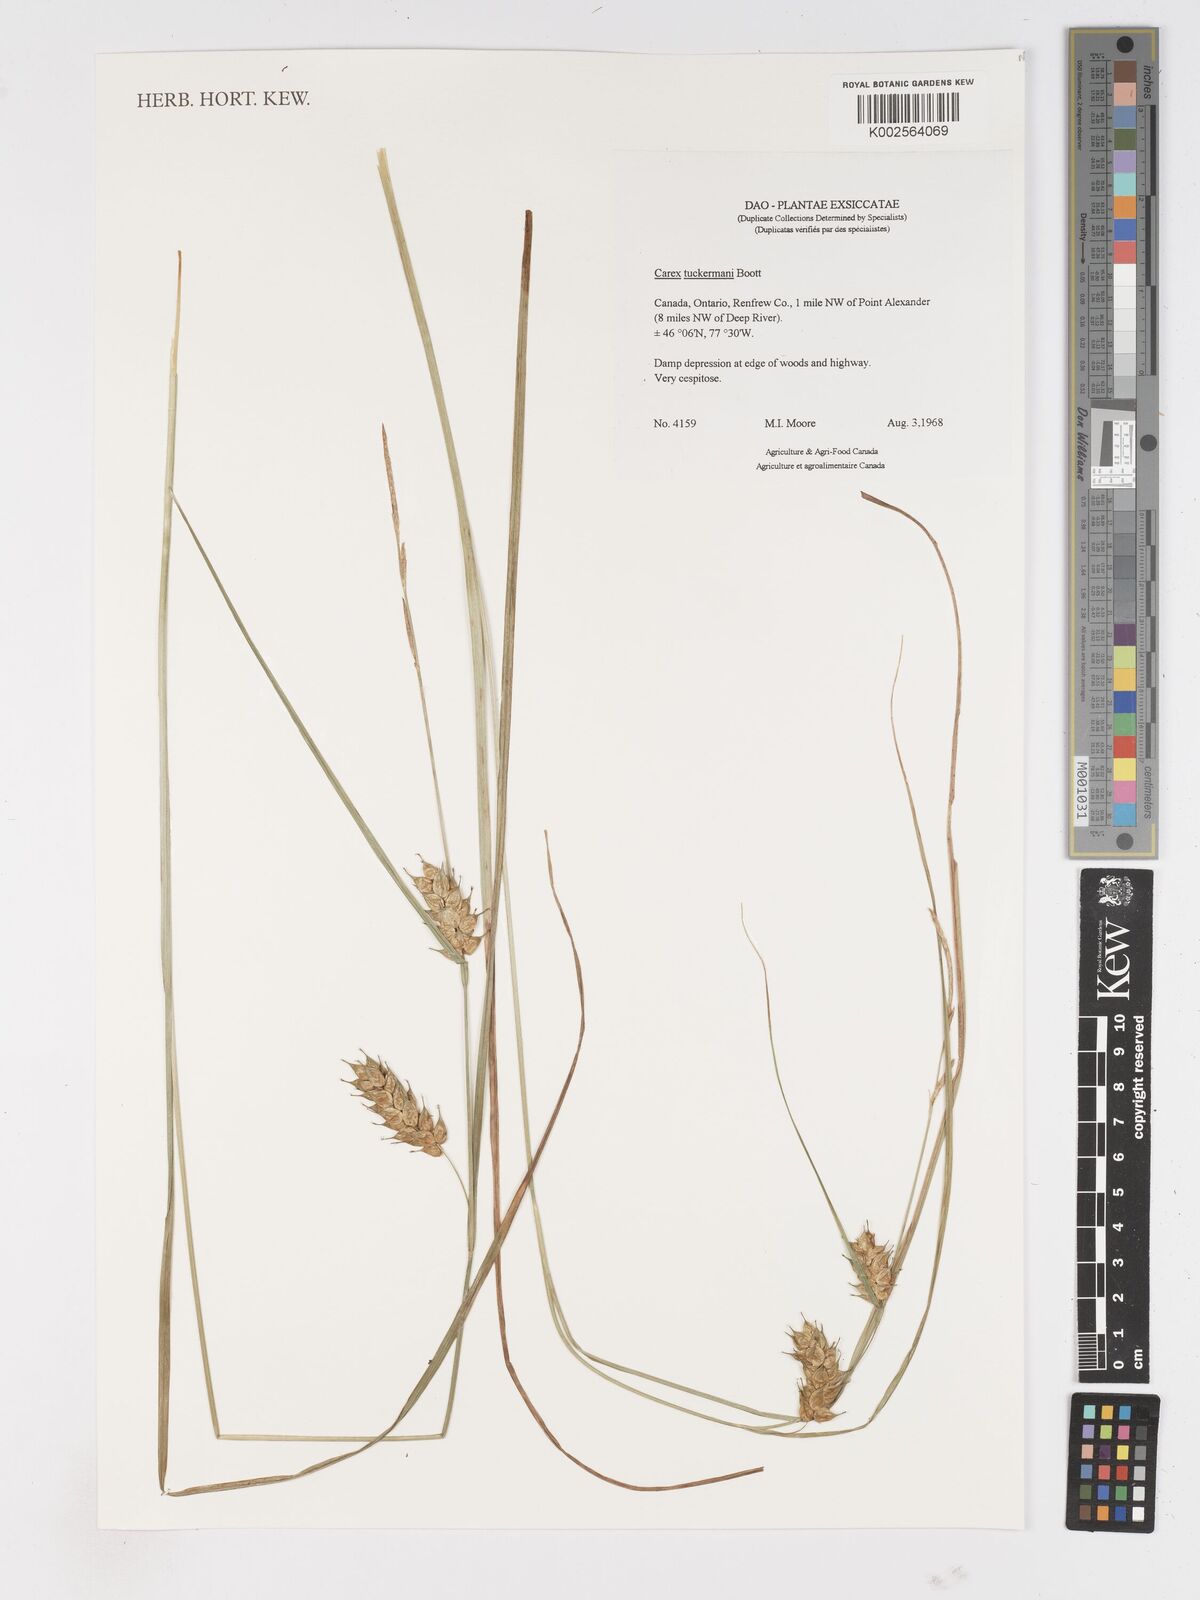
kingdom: Plantae
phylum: Tracheophyta
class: Liliopsida
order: Poales
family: Cyperaceae
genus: Carex
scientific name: Carex tuckermanii
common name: Tuckerman's sedge
